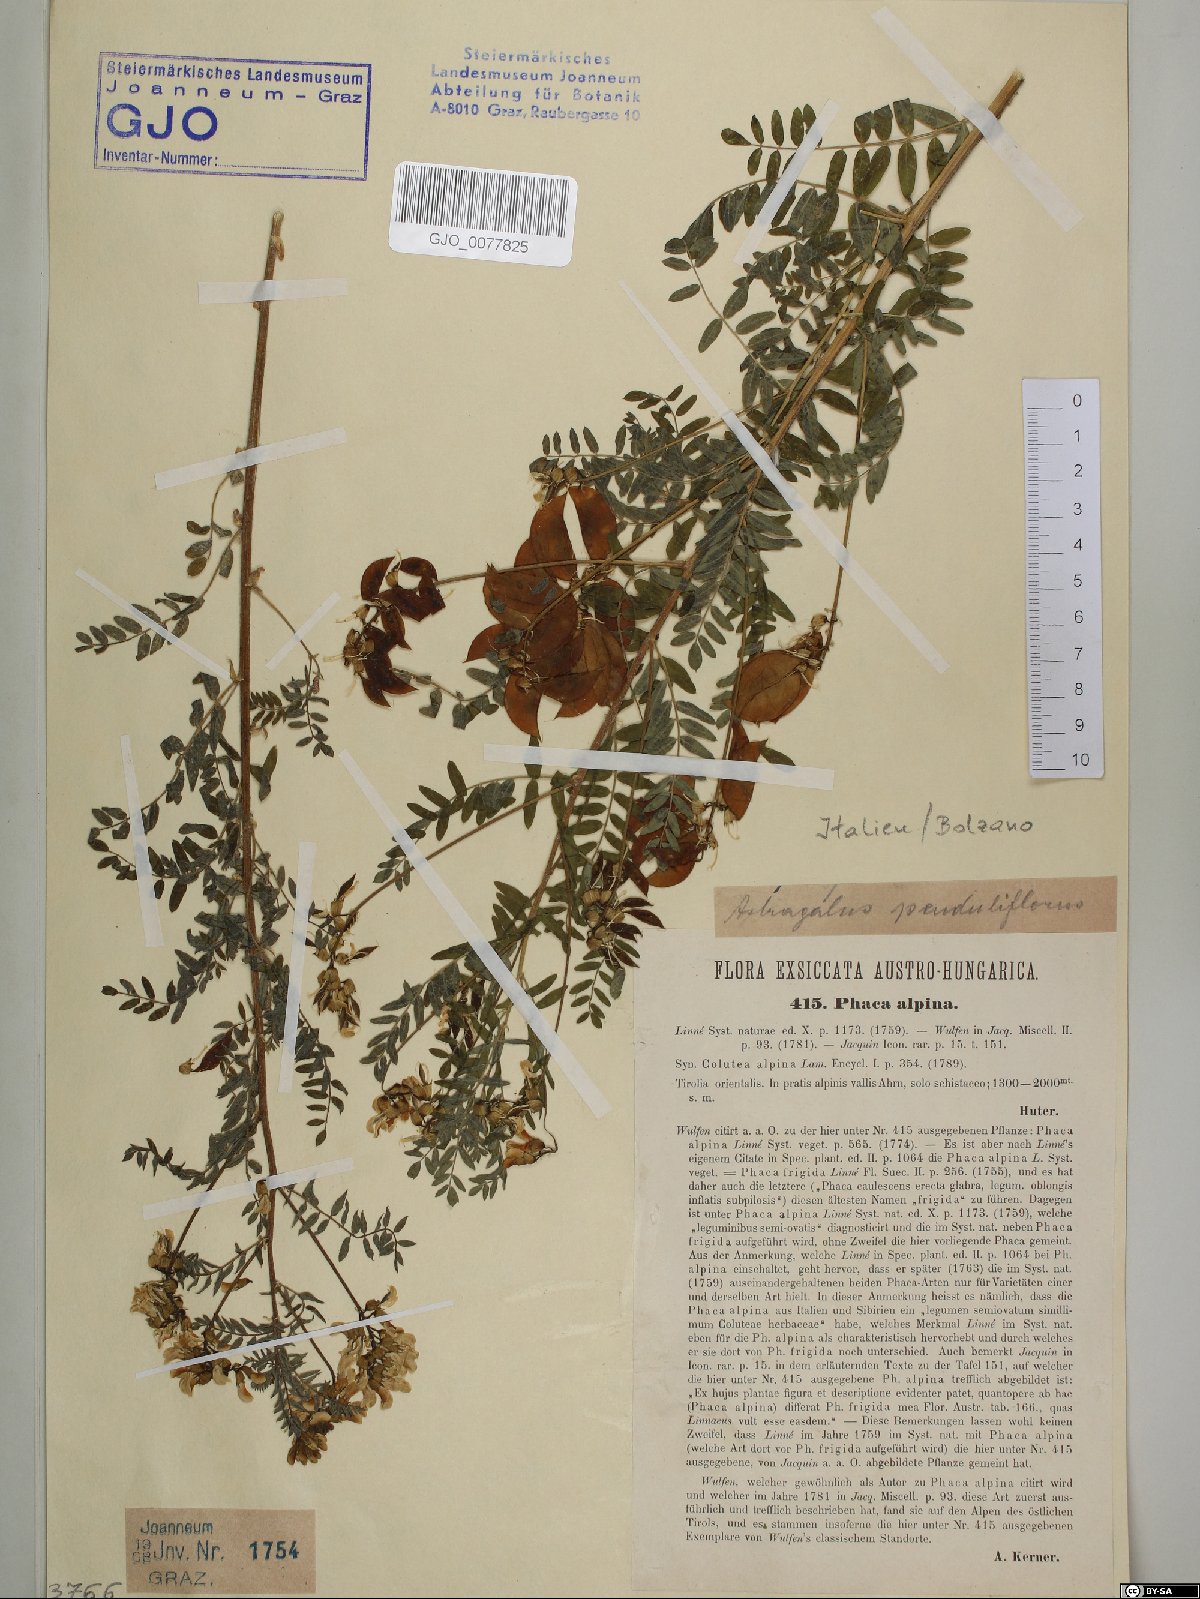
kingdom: Plantae
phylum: Tracheophyta
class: Magnoliopsida
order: Fabales
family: Fabaceae
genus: Astragalus
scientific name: Astragalus penduliflorus
